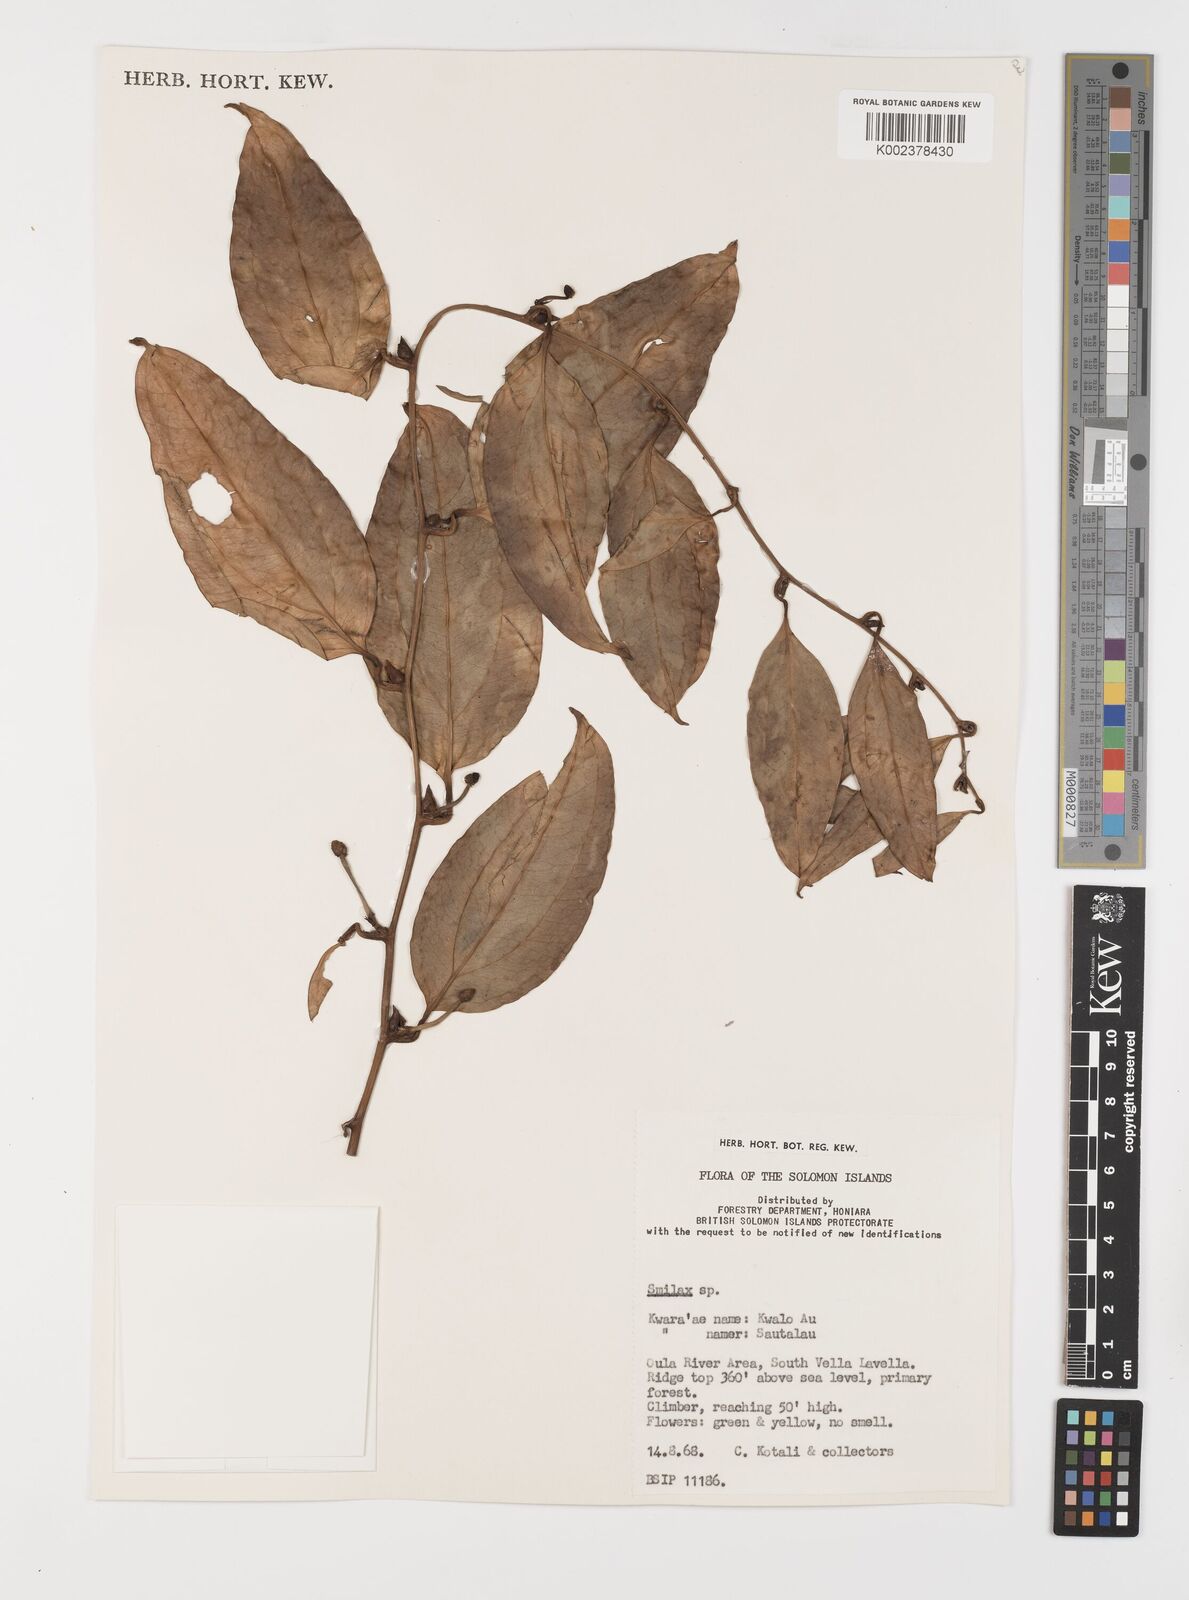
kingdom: Plantae
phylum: Tracheophyta
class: Liliopsida
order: Liliales
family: Smilacaceae
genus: Smilax
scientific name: Smilax
